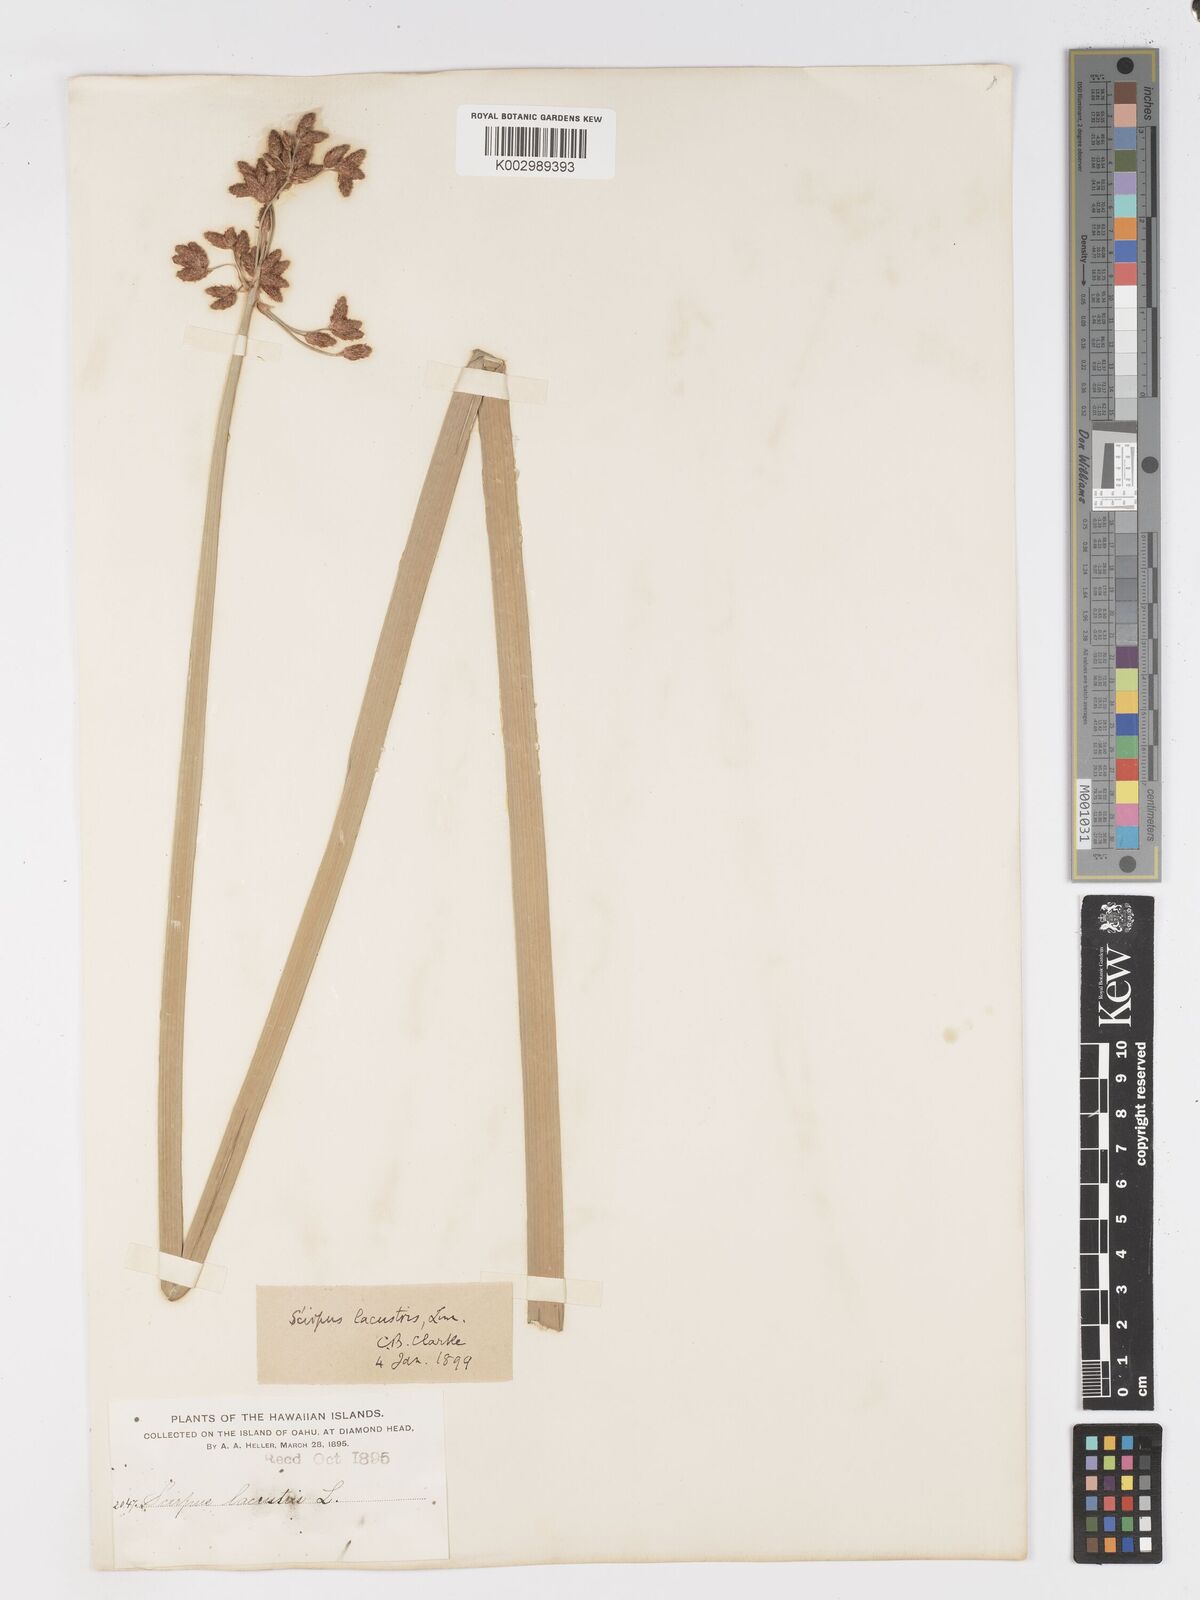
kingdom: Plantae
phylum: Tracheophyta
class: Liliopsida
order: Poales
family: Cyperaceae
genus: Schoenoplectus
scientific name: Schoenoplectus californicus
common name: California bulrush
